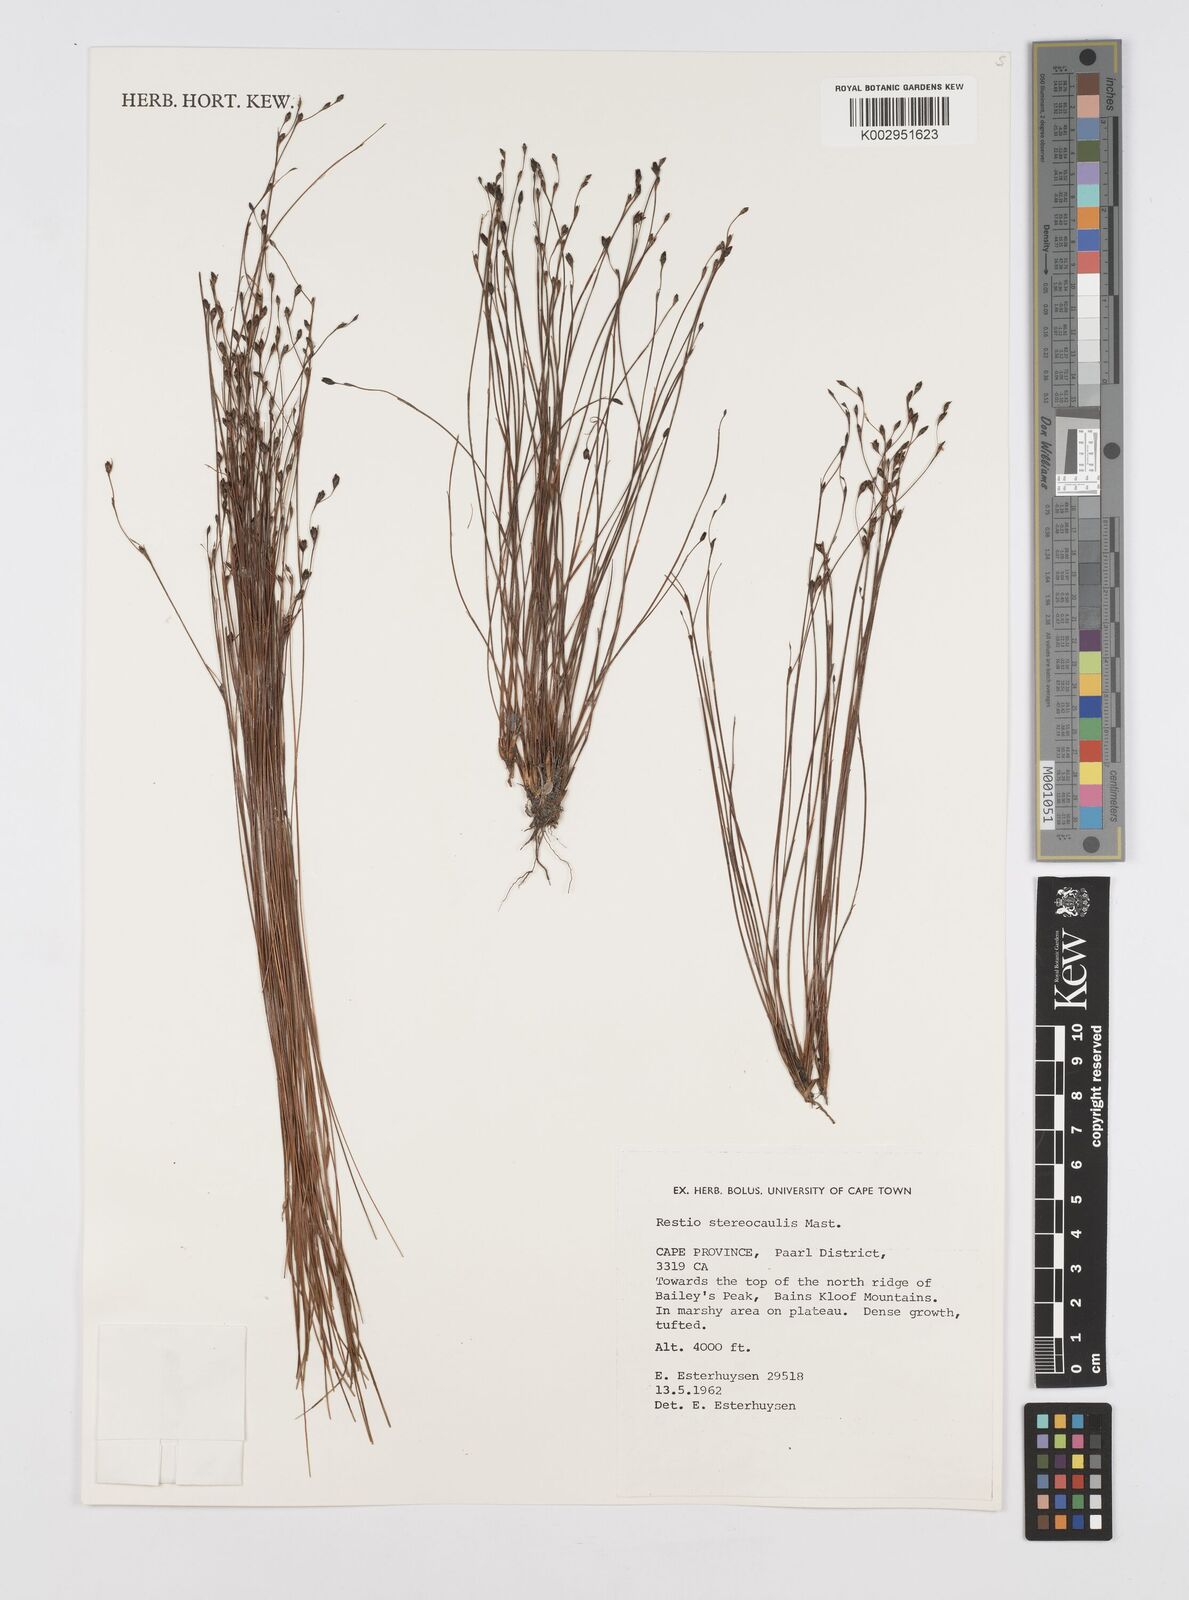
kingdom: Plantae
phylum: Tracheophyta
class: Liliopsida
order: Poales
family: Restionaceae
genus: Restio
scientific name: Restio stereocaulis
